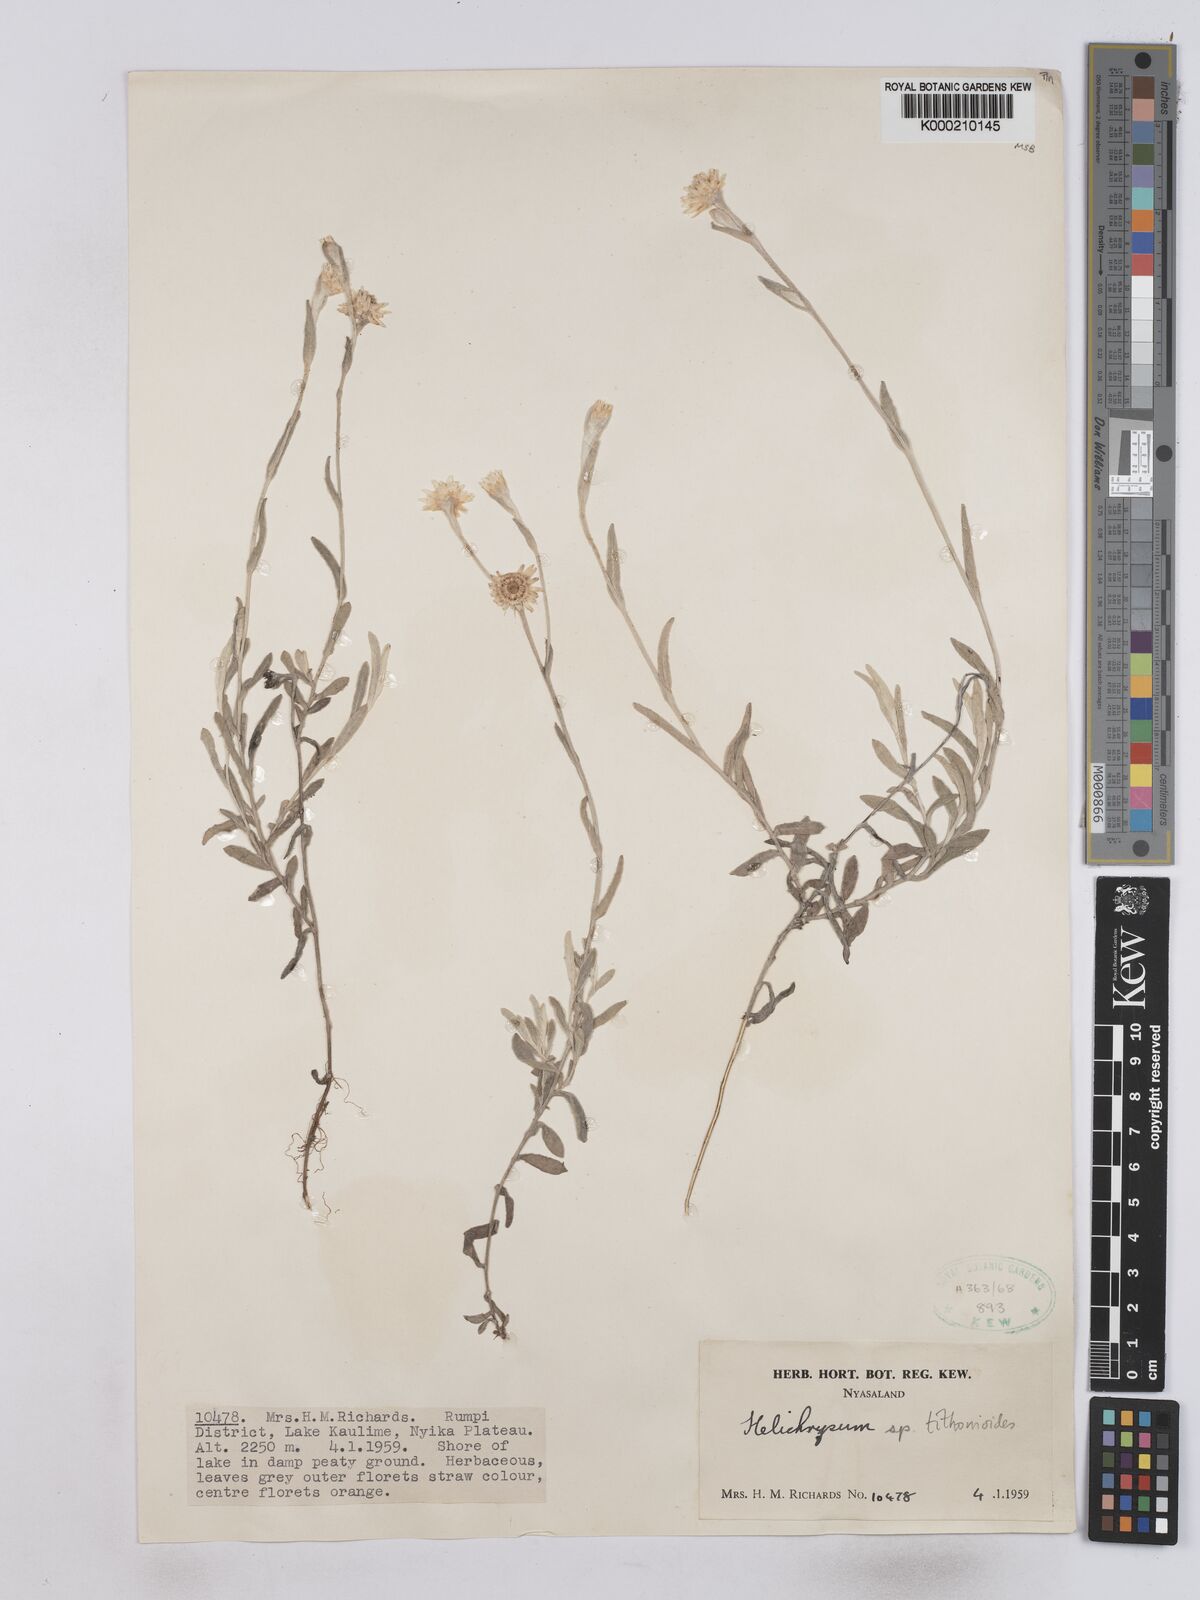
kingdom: Plantae
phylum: Tracheophyta
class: Magnoliopsida
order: Asterales
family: Asteraceae
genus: Helichrysum
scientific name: Helichrysum tithonioides
